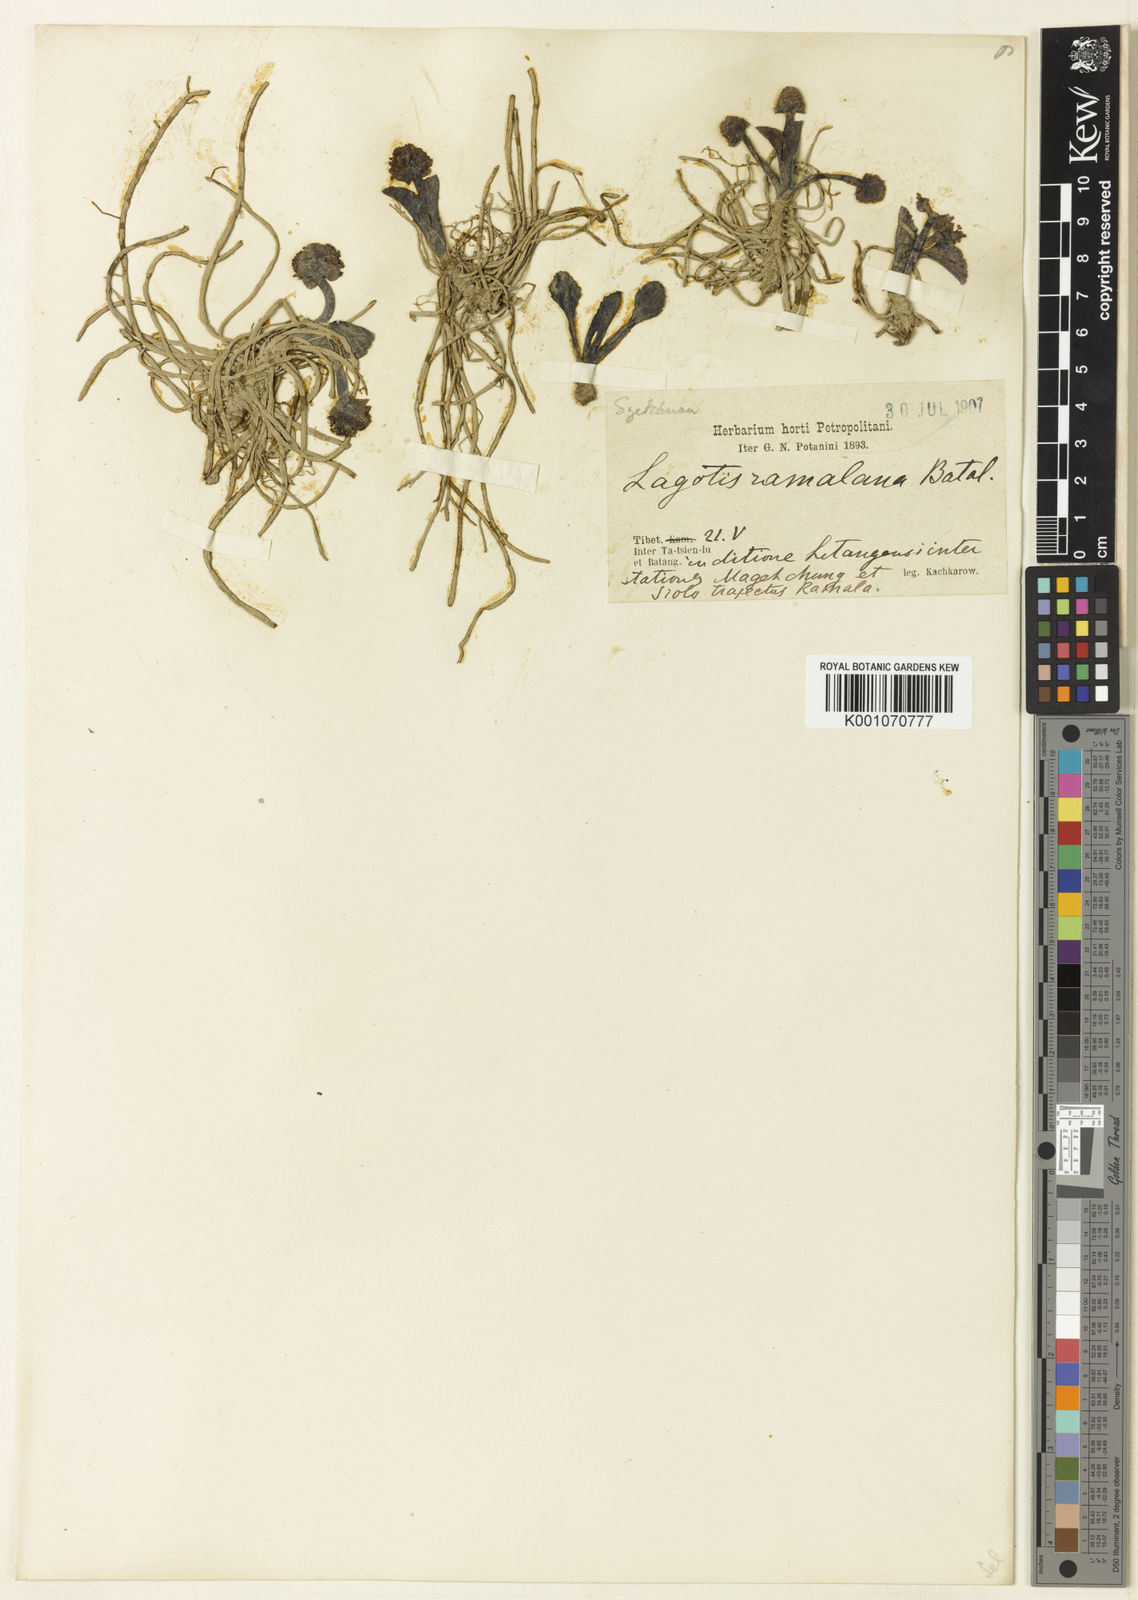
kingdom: Plantae
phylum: Tracheophyta
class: Magnoliopsida
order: Lamiales
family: Plantaginaceae
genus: Lagotis
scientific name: Lagotis ramalana
